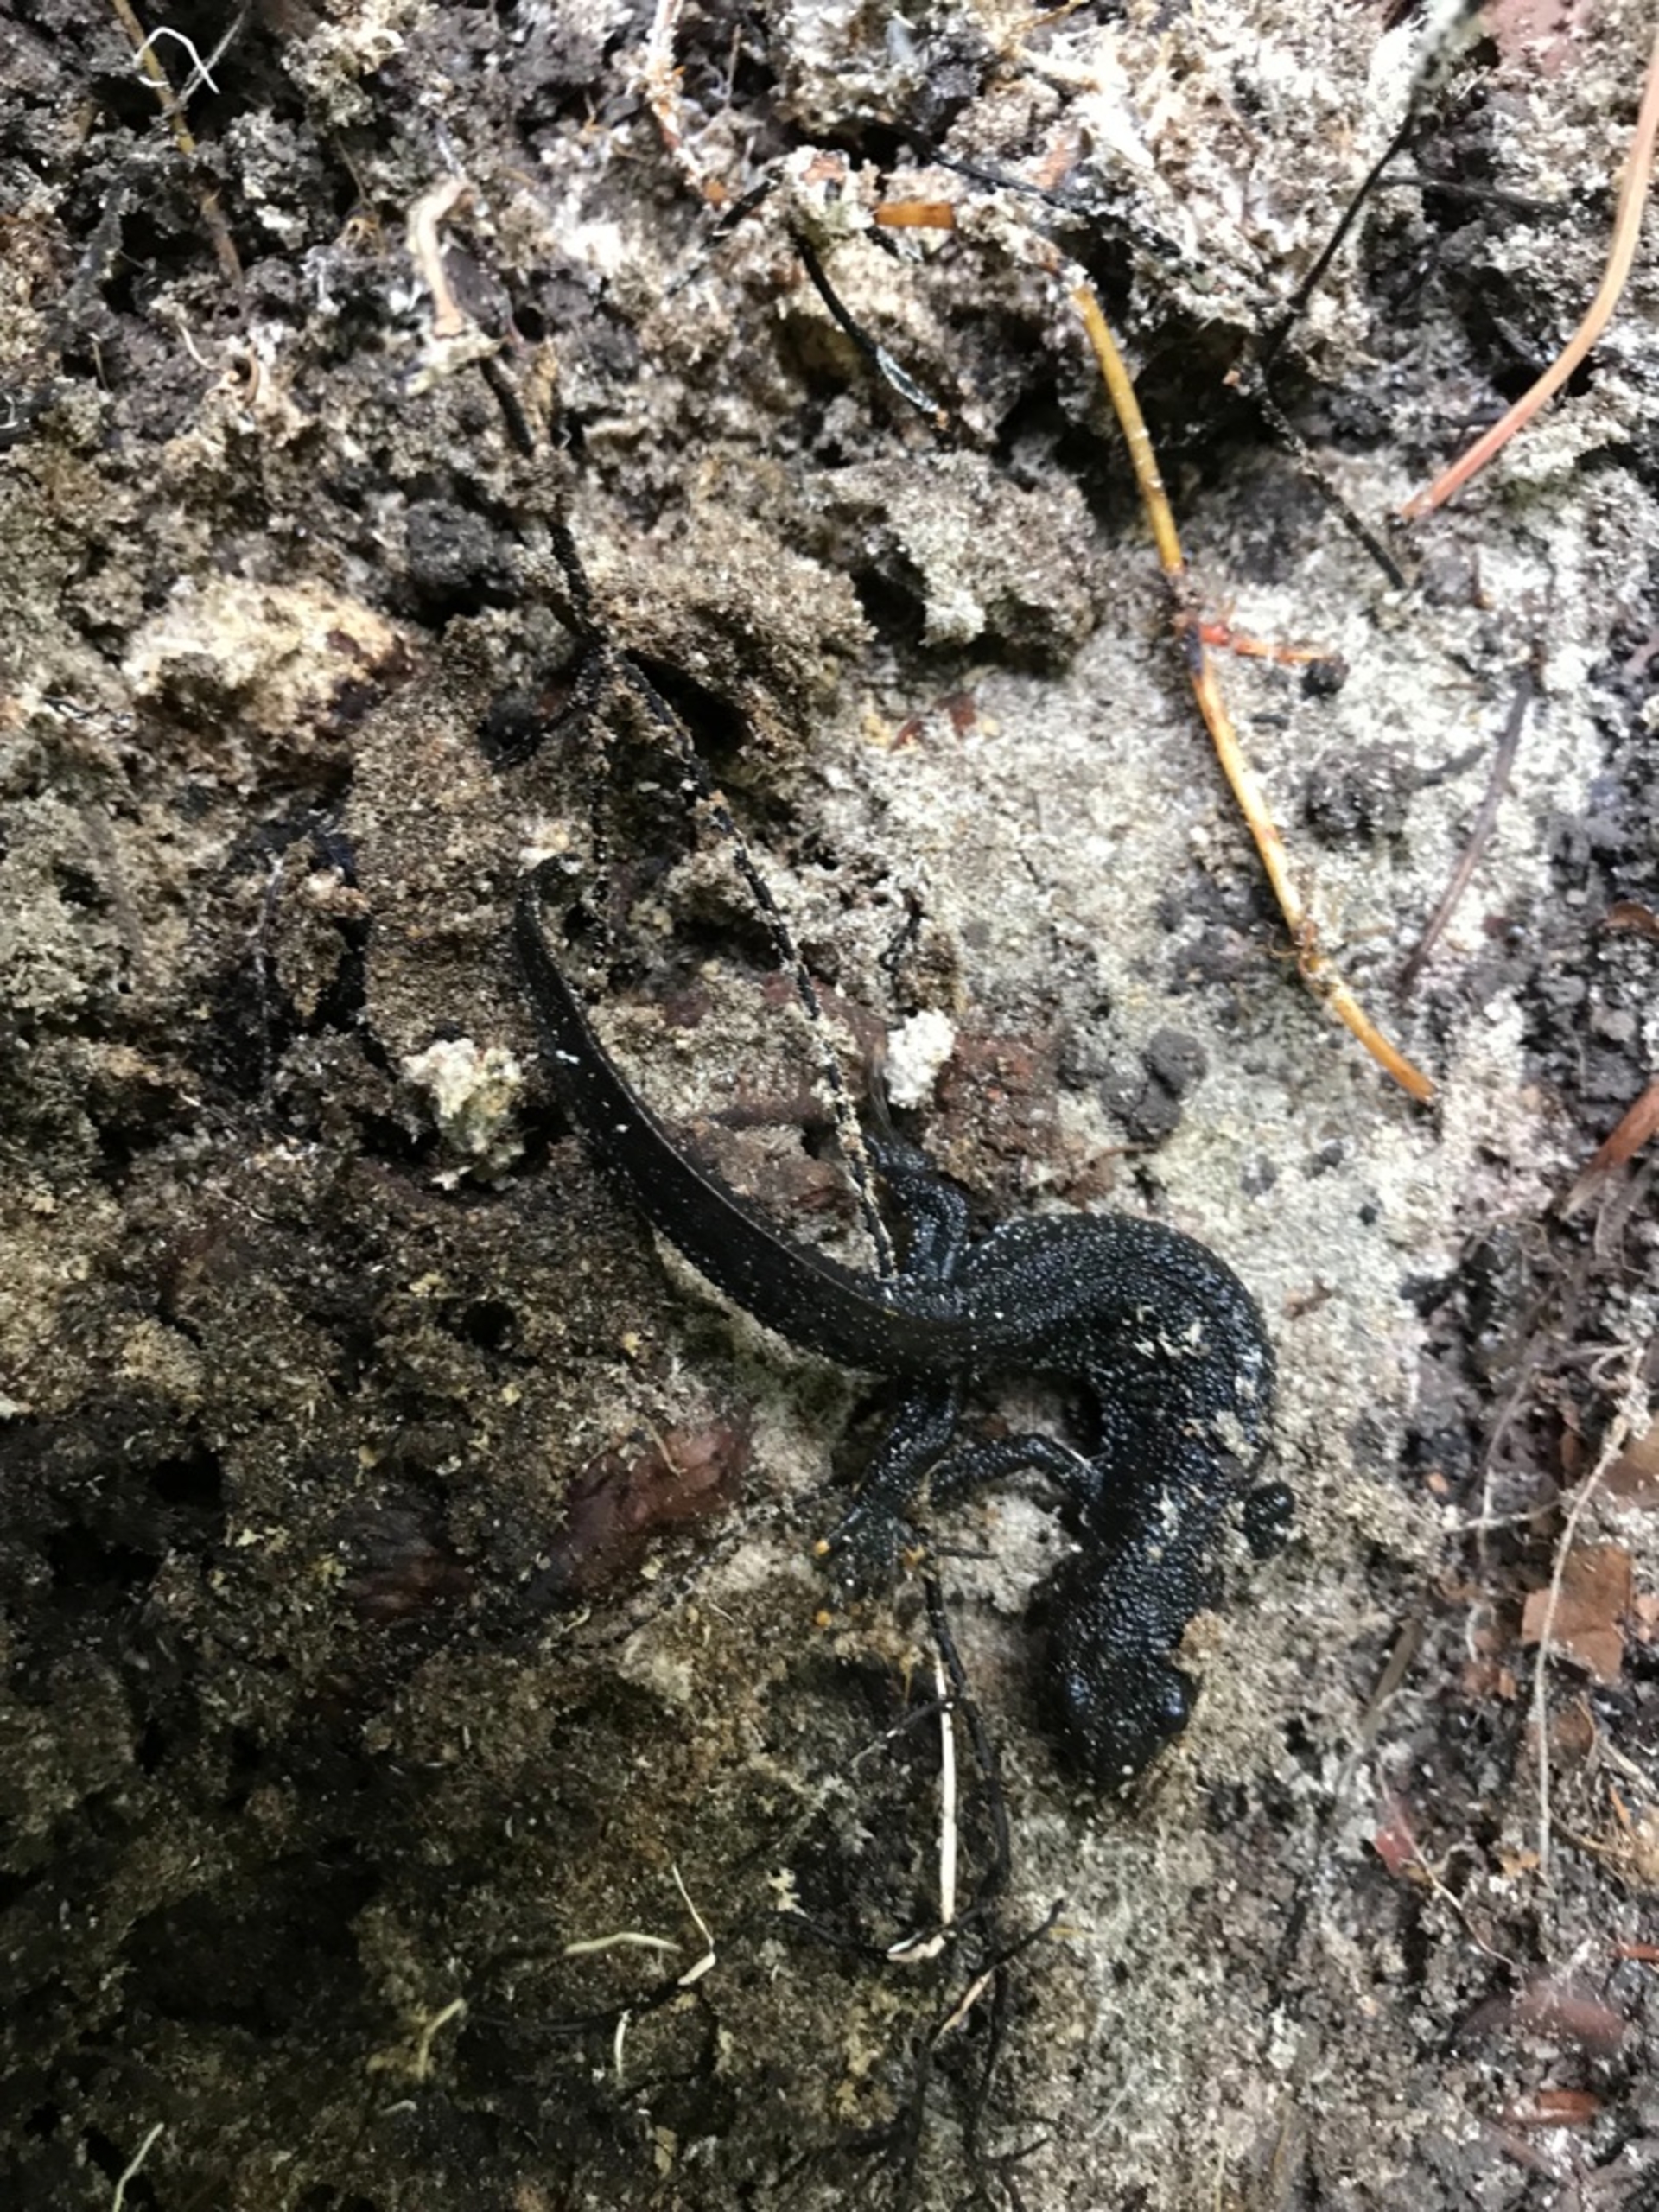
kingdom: Animalia
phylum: Chordata
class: Amphibia
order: Caudata
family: Salamandridae
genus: Triturus
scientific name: Triturus cristatus
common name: Stor vandsalamander
